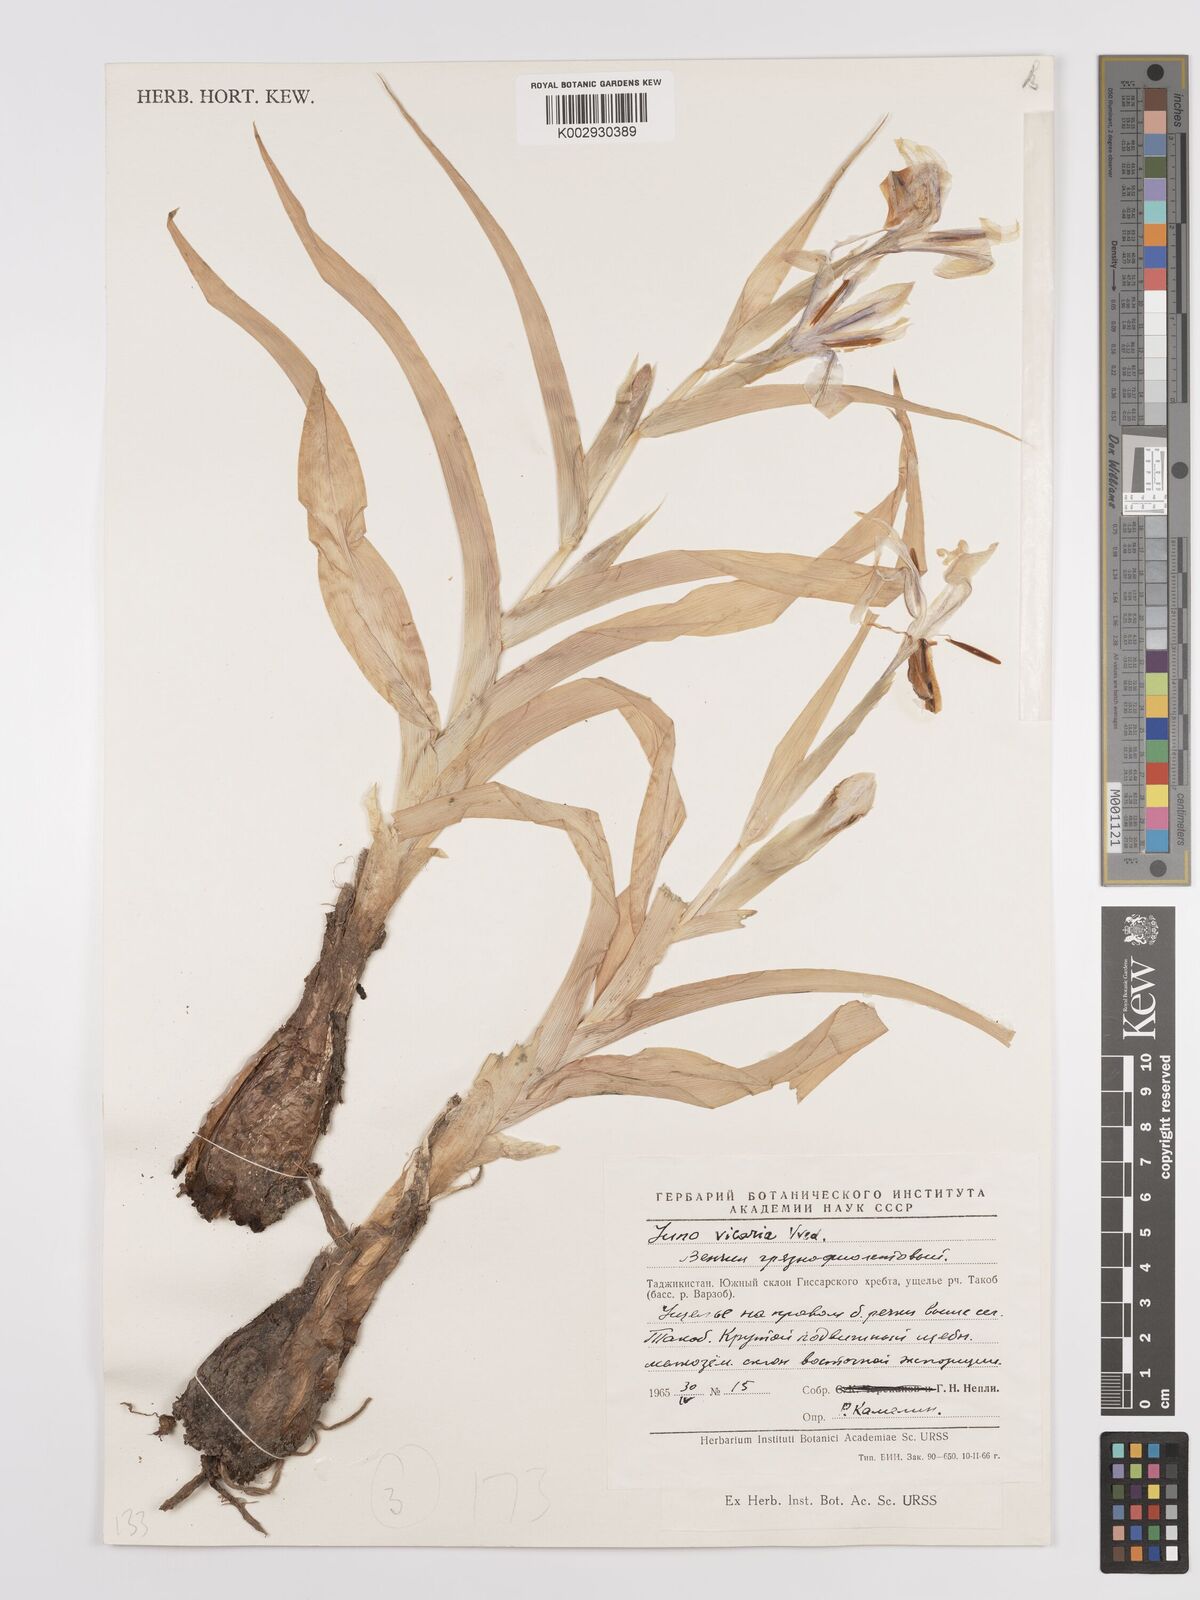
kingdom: Plantae
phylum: Tracheophyta
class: Liliopsida
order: Asparagales
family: Iridaceae
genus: Iris
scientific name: Iris vicaria
